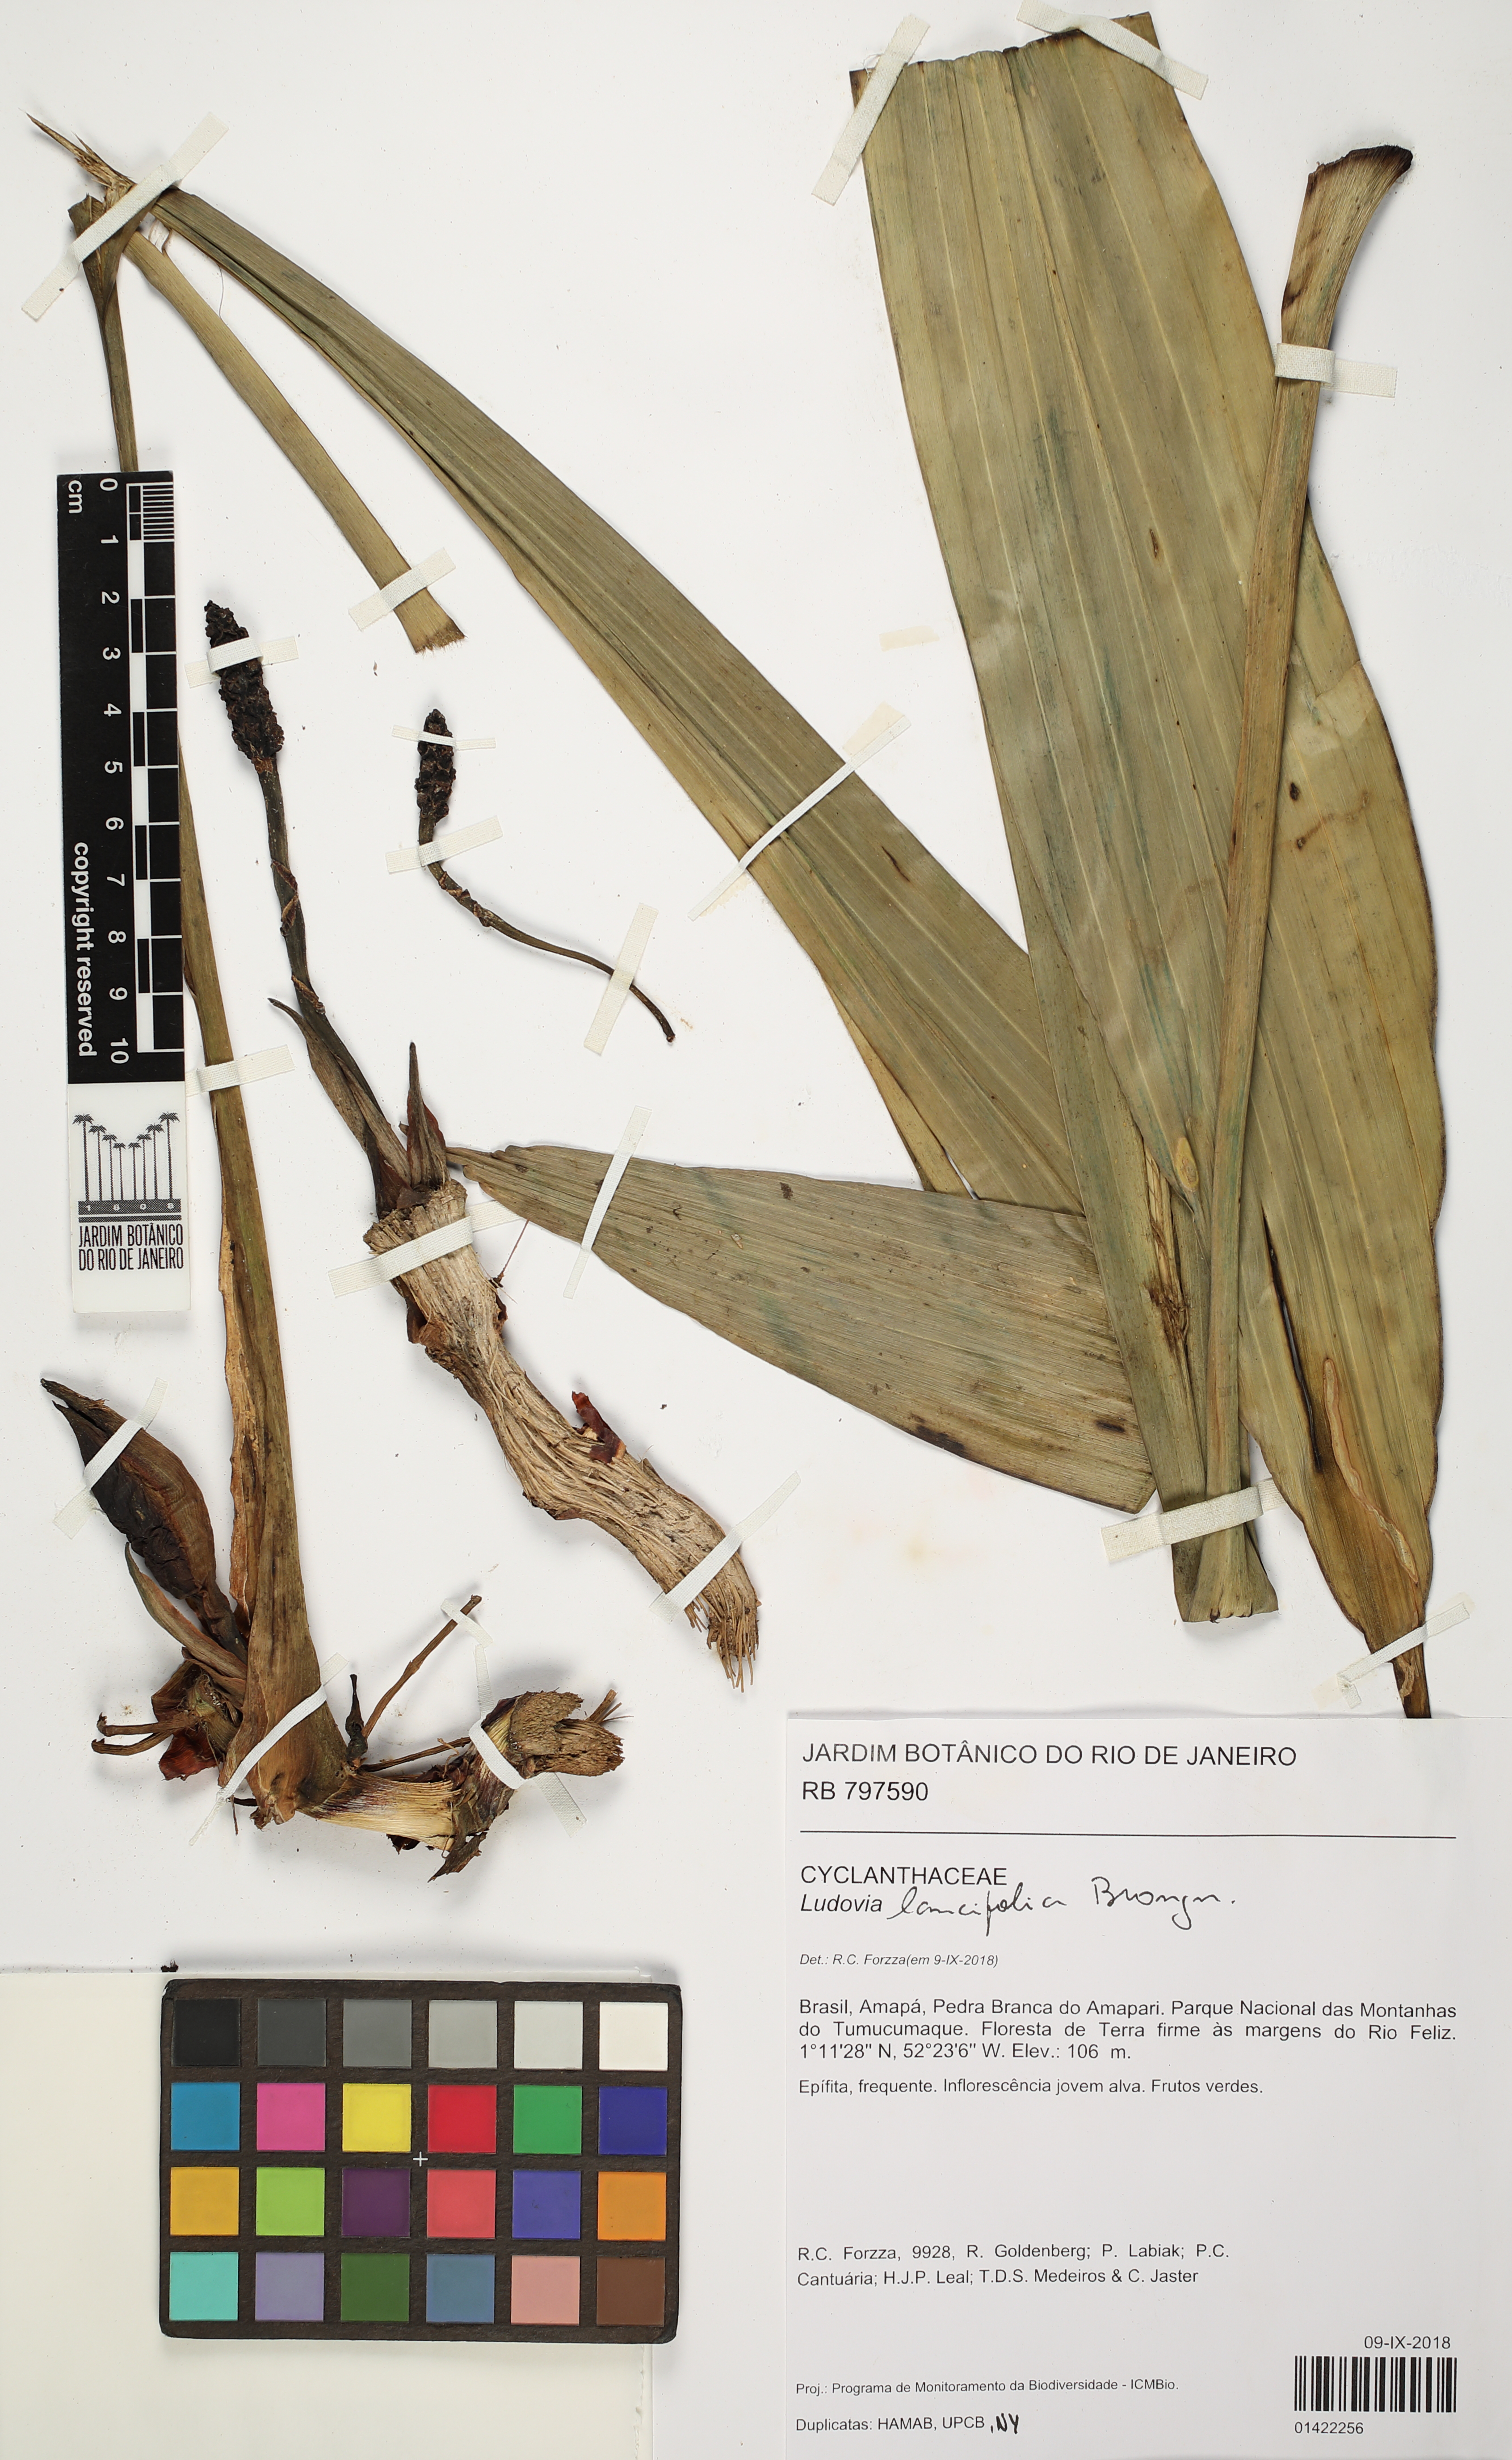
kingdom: Plantae
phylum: Tracheophyta
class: Liliopsida
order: Pandanales
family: Cyclanthaceae
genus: Ludovia
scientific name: Ludovia lancifolia
